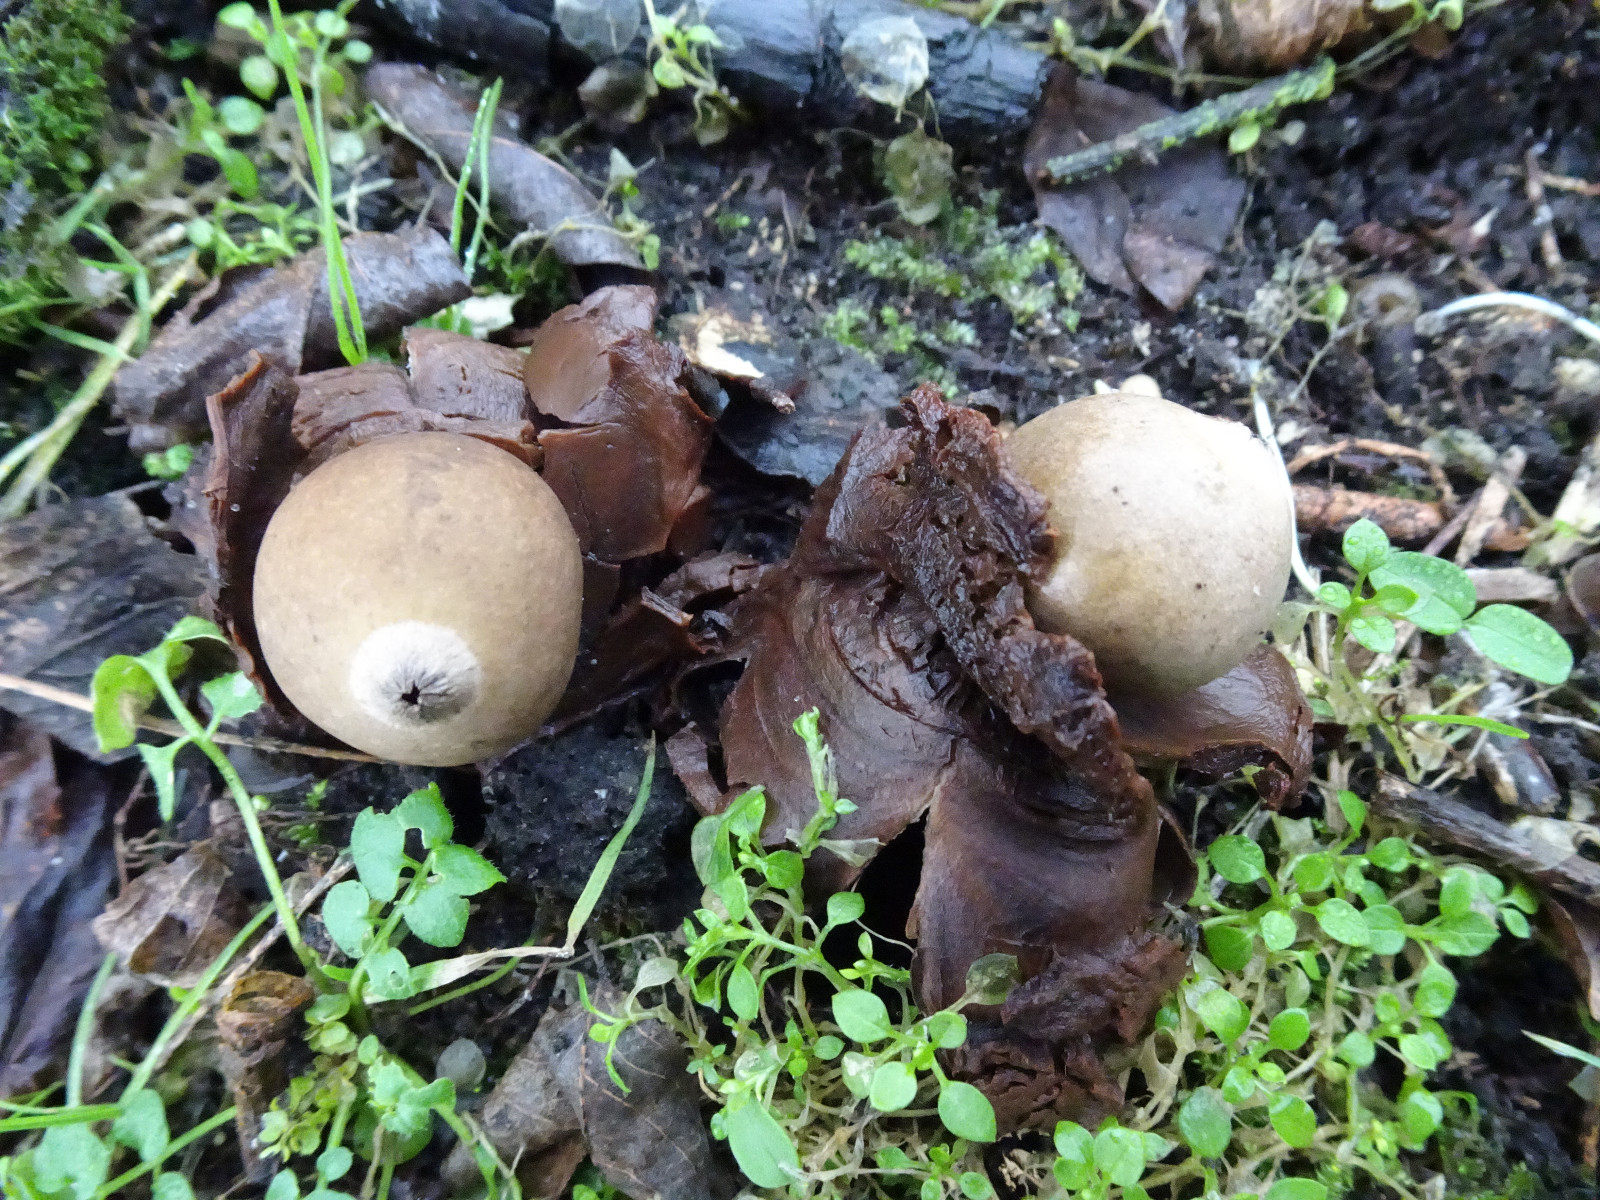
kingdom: Fungi
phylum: Basidiomycota
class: Agaricomycetes
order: Geastrales
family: Geastraceae
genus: Geastrum
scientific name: Geastrum michelianum
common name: kødet stjernebold
